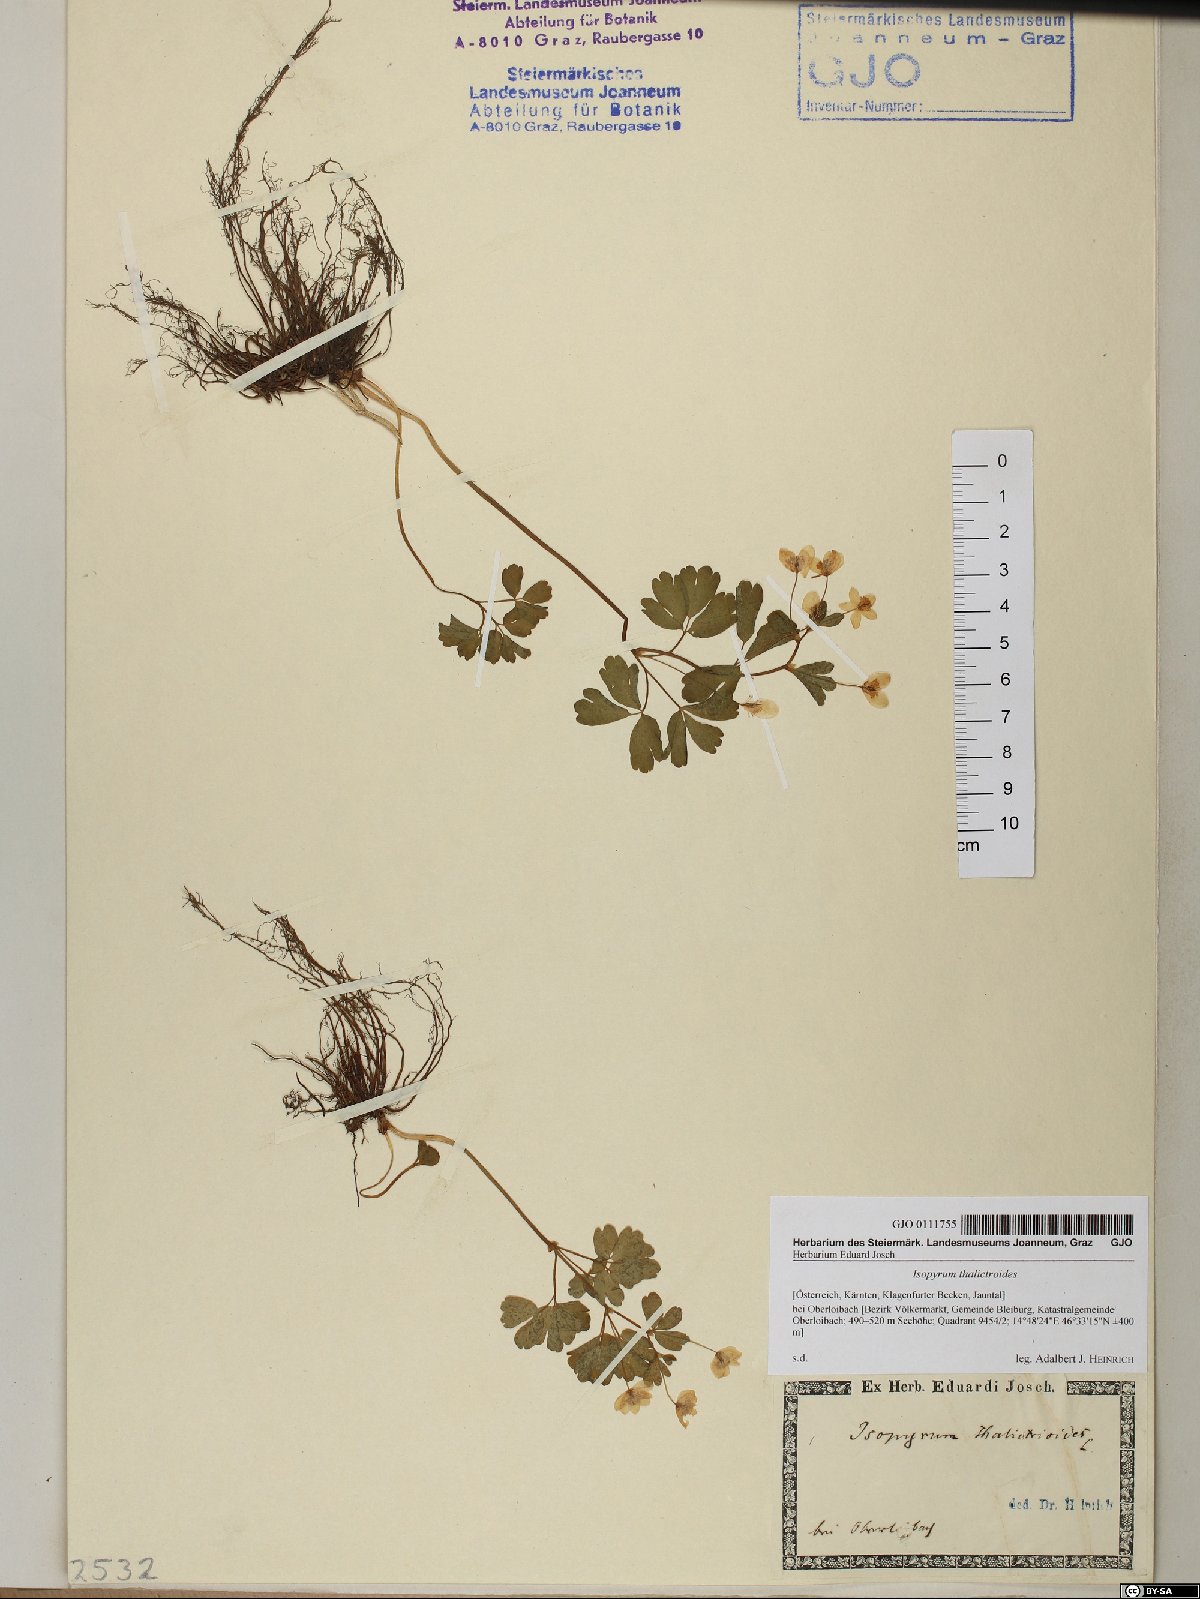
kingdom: Plantae
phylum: Tracheophyta
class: Magnoliopsida
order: Ranunculales
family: Ranunculaceae
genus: Isopyrum
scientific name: Isopyrum thalictroides
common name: Isopyrum
